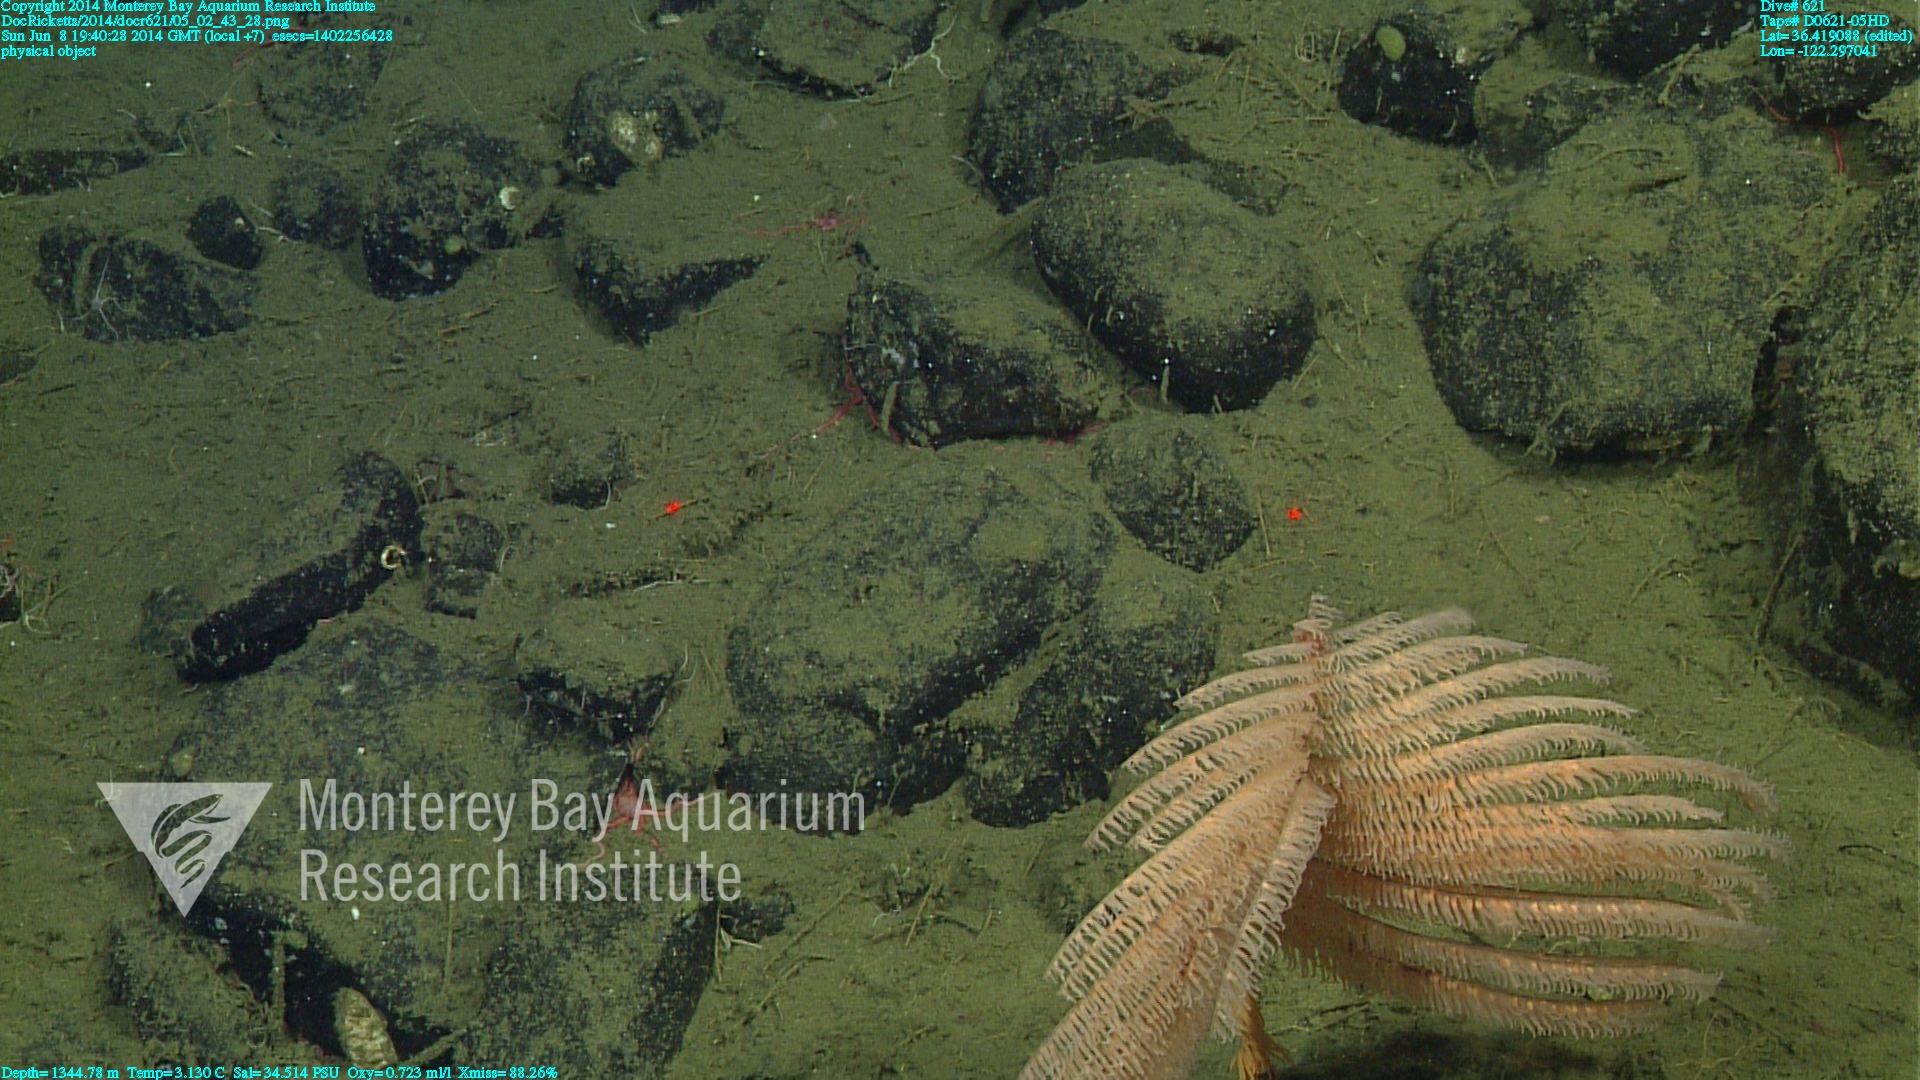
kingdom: Animalia
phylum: Cnidaria
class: Anthozoa
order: Antipatharia
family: Schizopathidae
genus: Bathypathes
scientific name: Bathypathes
